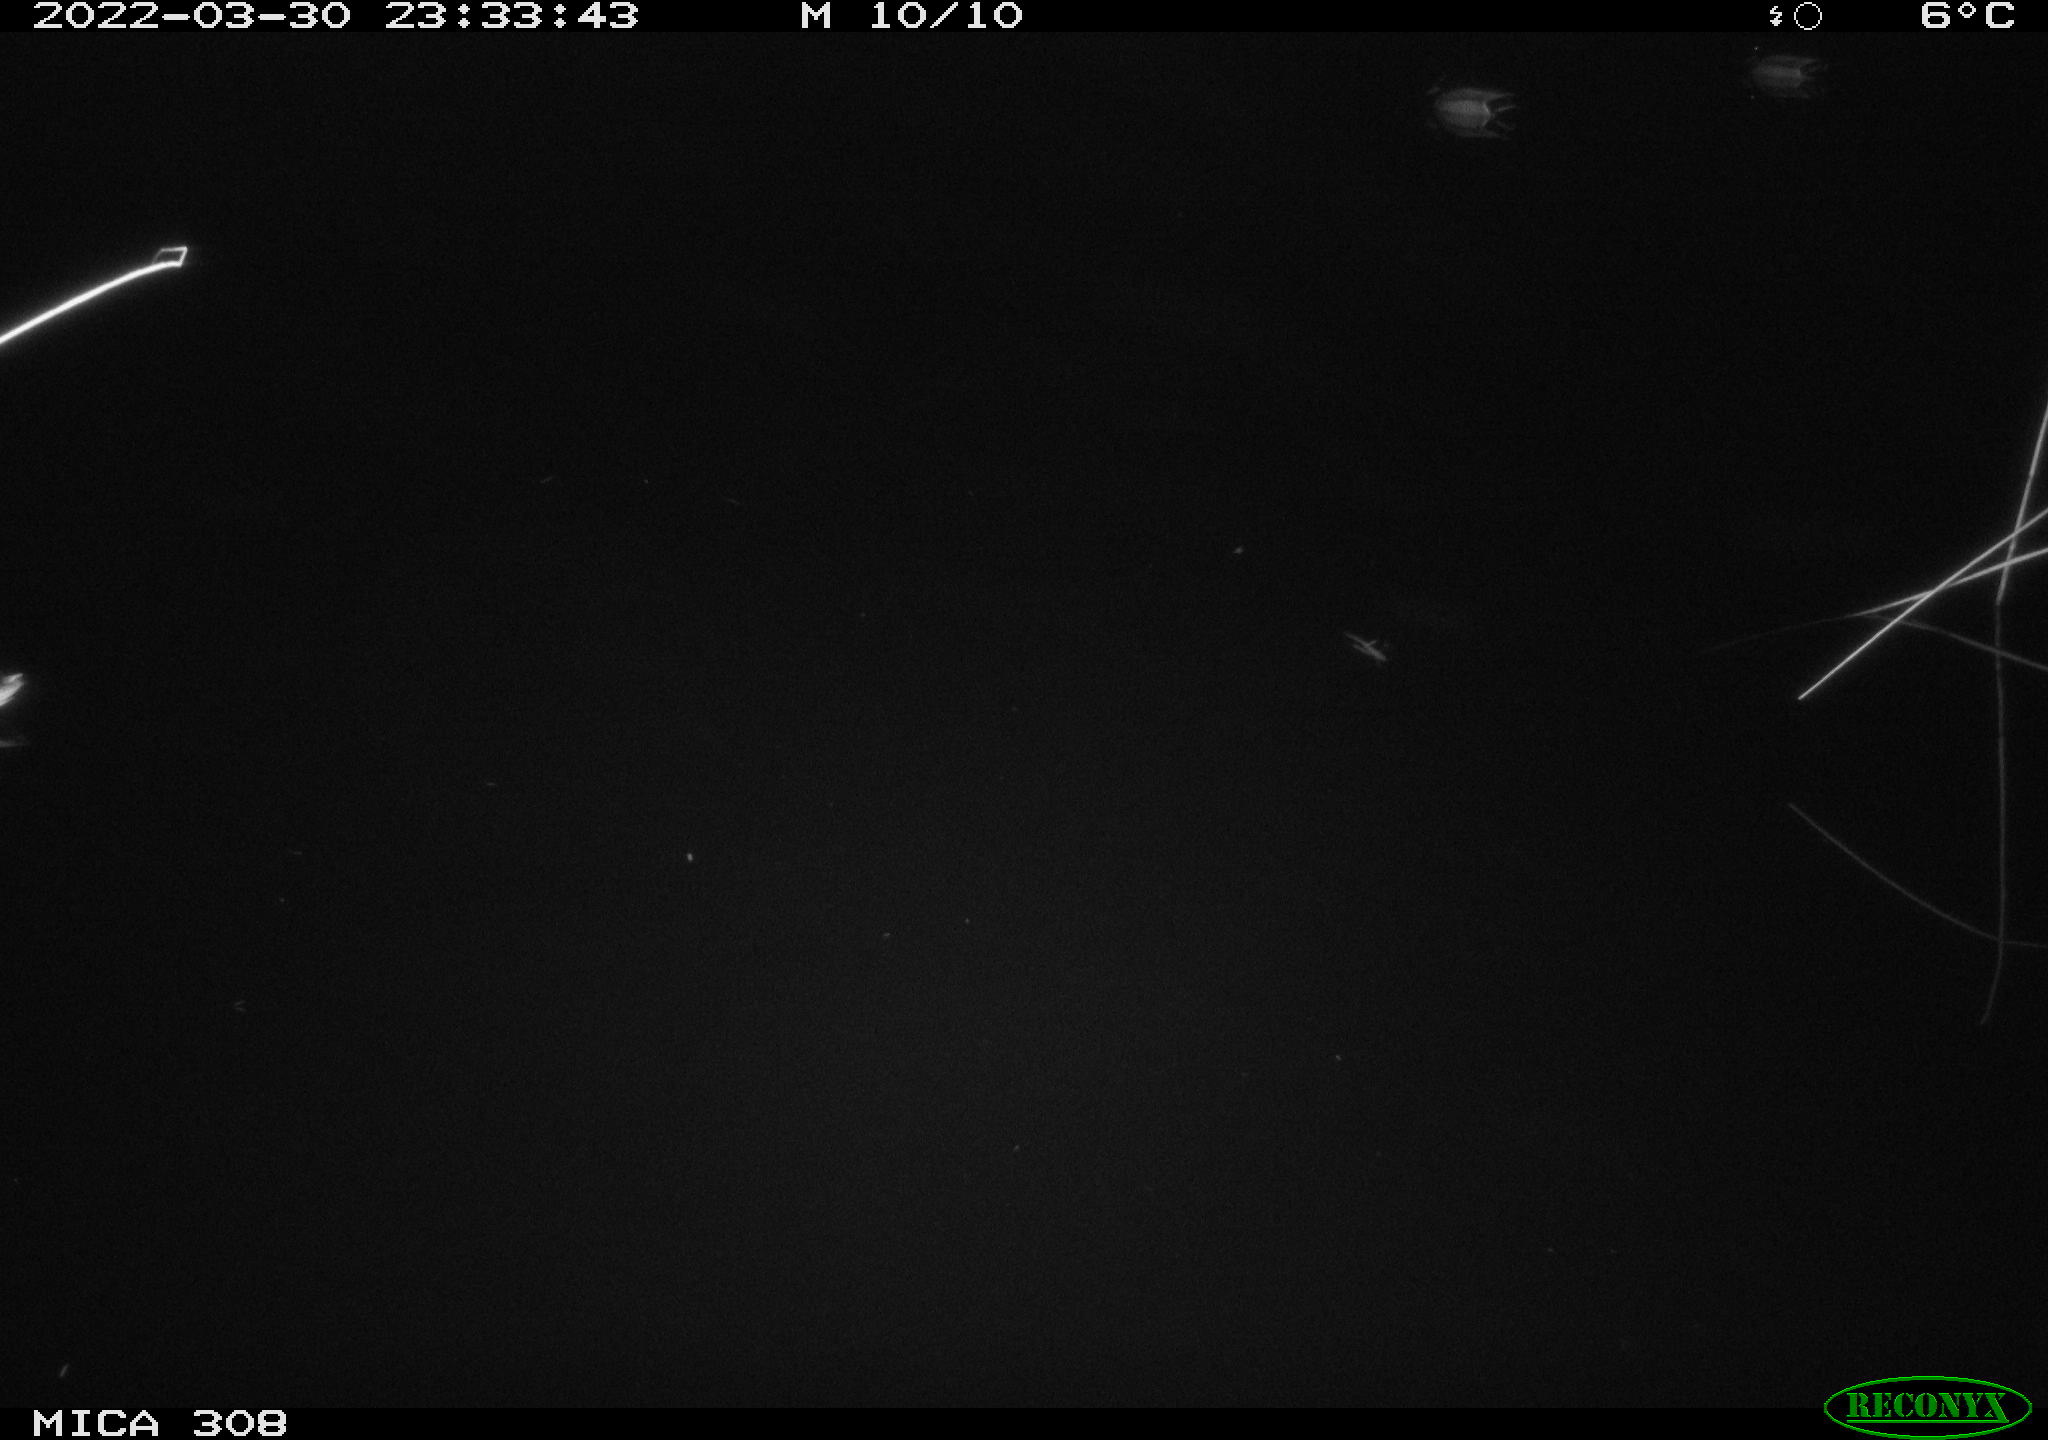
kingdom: Animalia
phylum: Chordata
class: Aves
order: Anseriformes
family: Anatidae
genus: Anas
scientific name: Anas platyrhynchos
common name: Mallard
